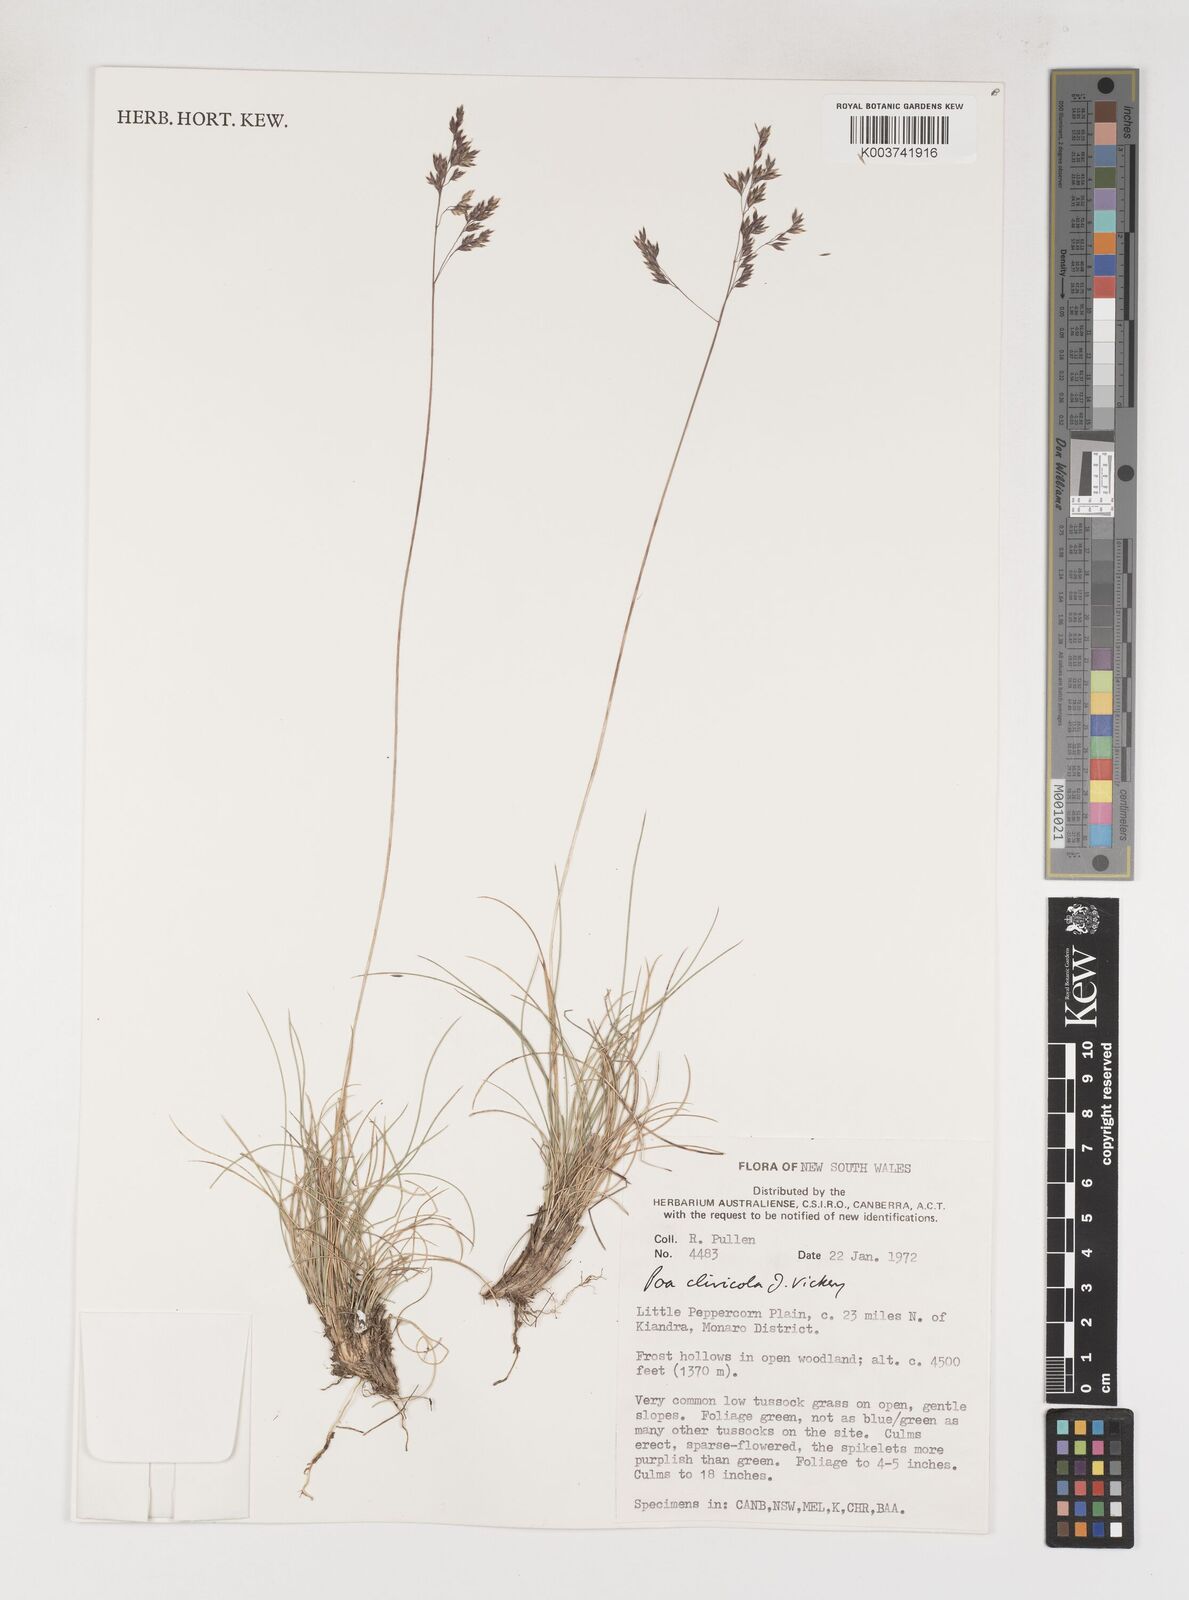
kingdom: Plantae
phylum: Tracheophyta
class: Liliopsida
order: Poales
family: Poaceae
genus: Poa
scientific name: Poa clivicola
